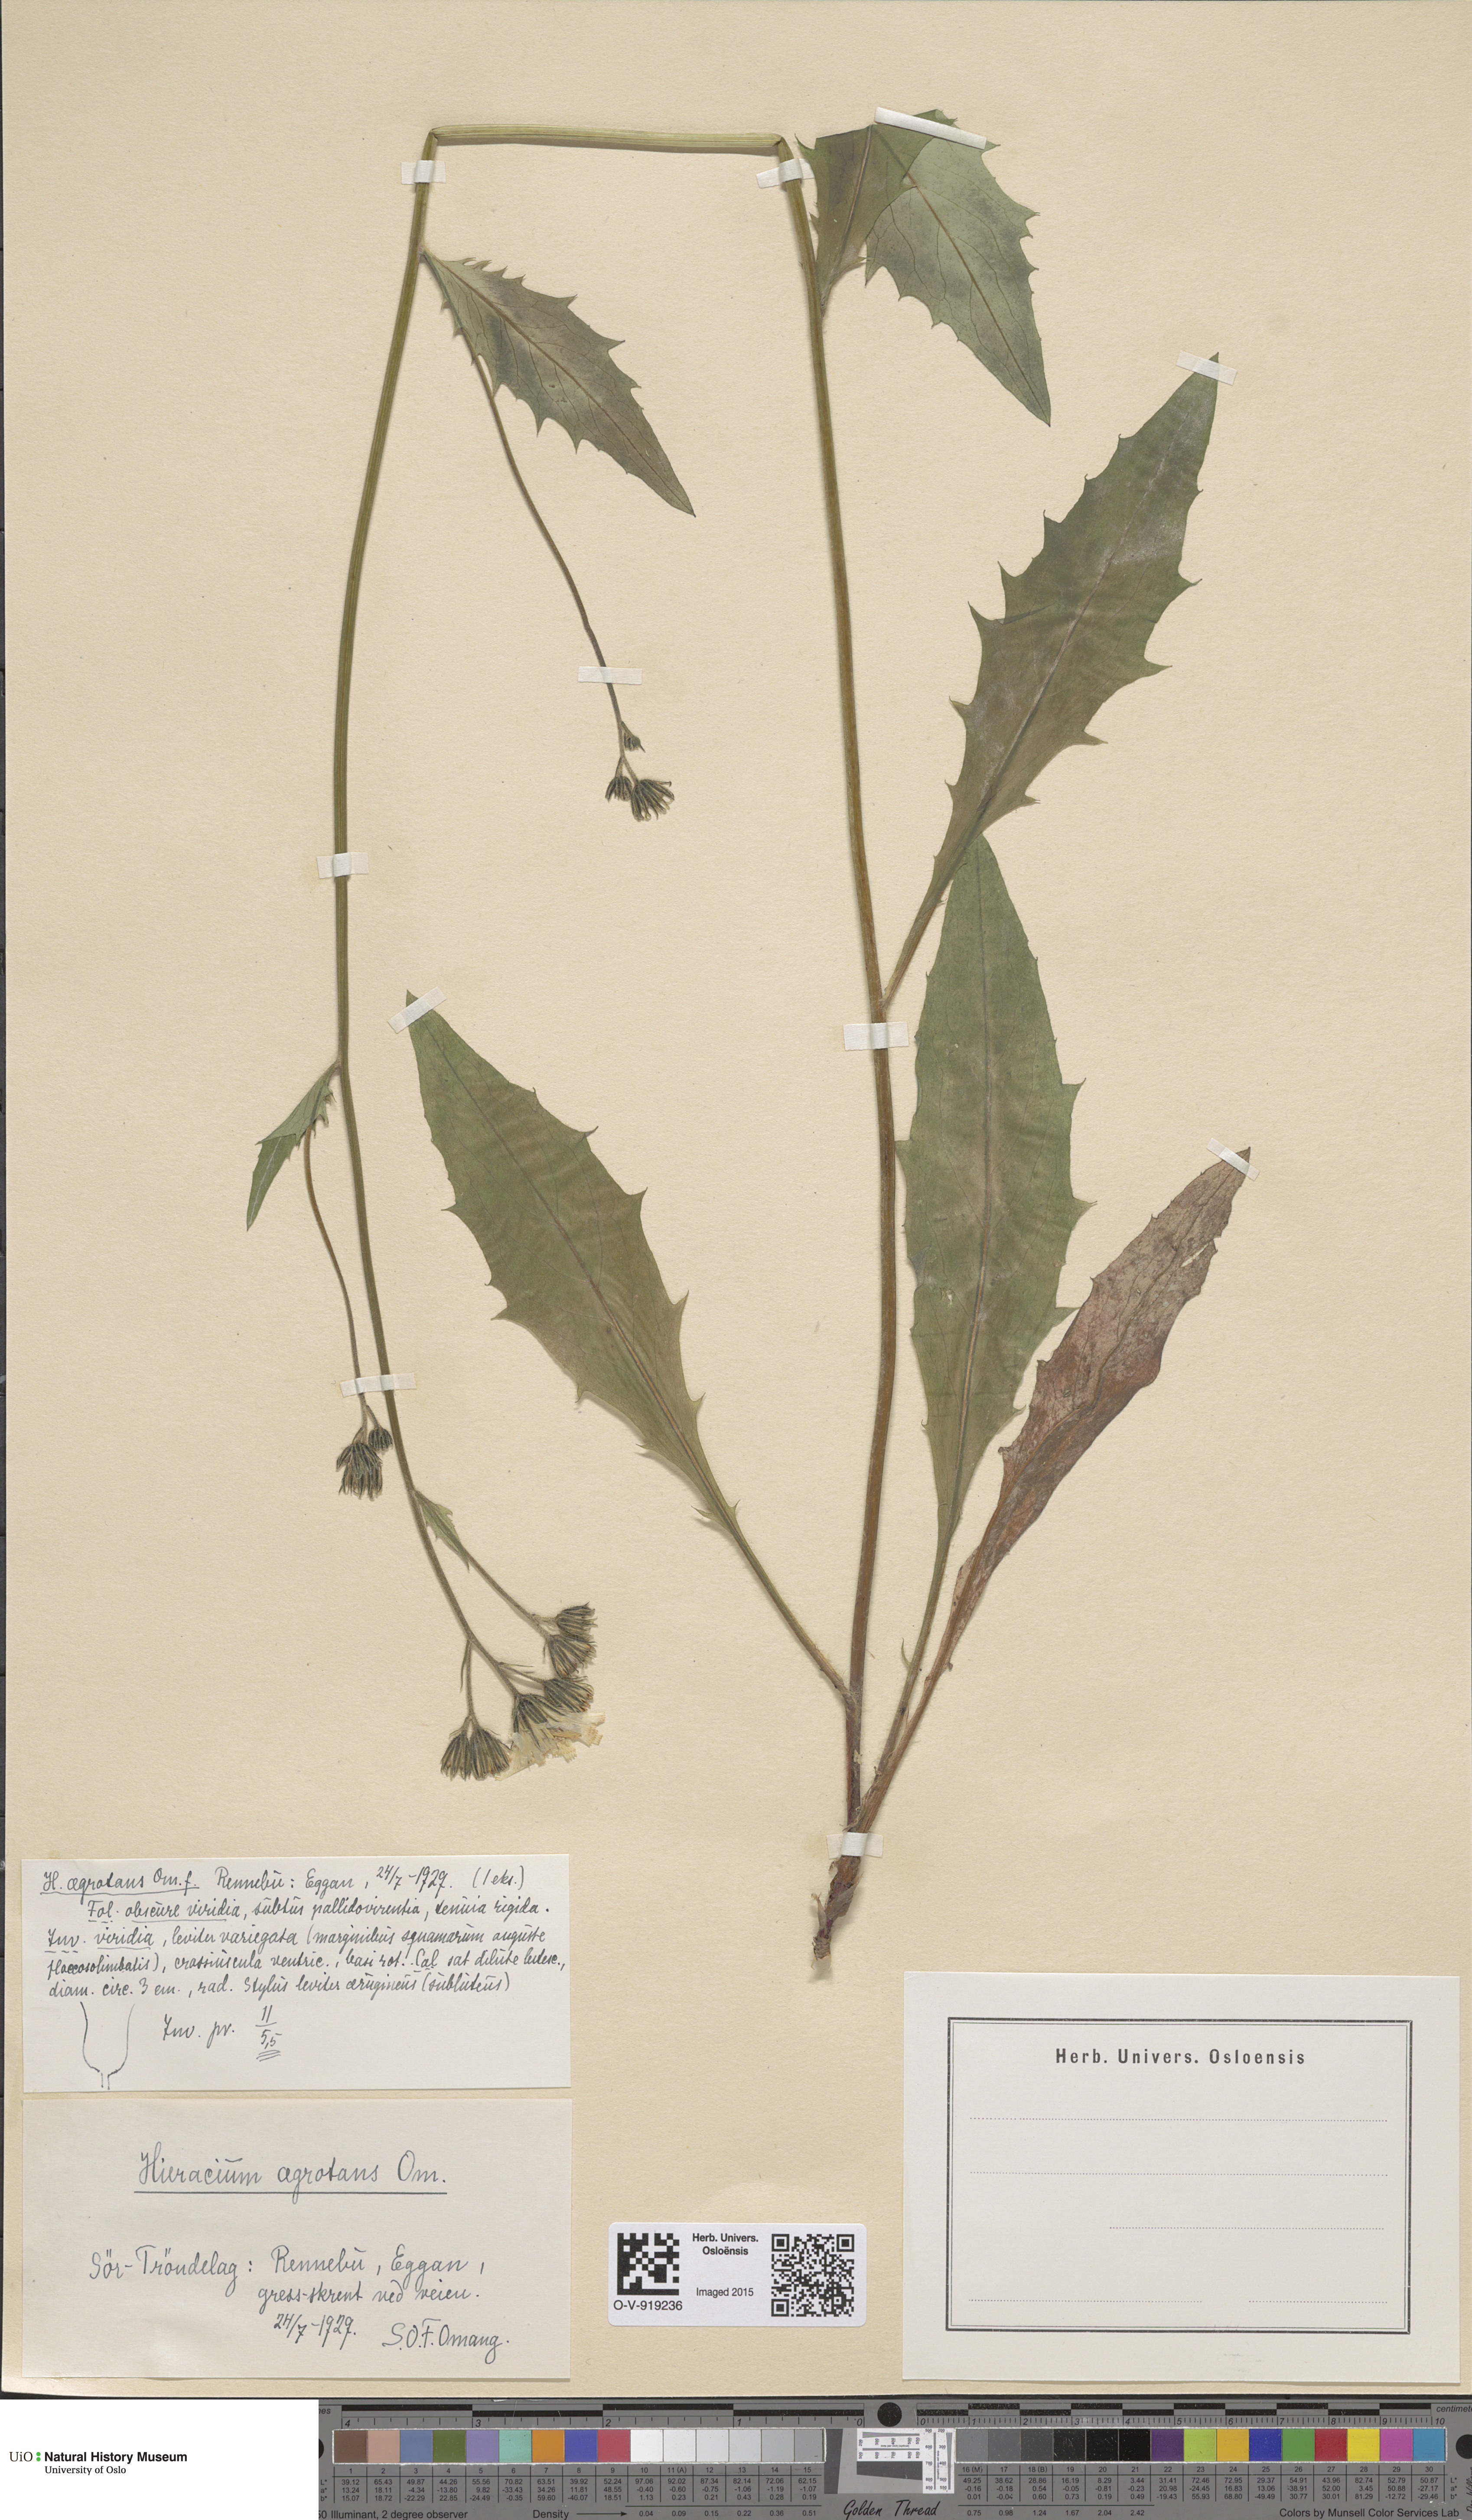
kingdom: Plantae
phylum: Tracheophyta
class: Magnoliopsida
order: Asterales
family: Asteraceae
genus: Hieracium
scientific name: Hieracium
